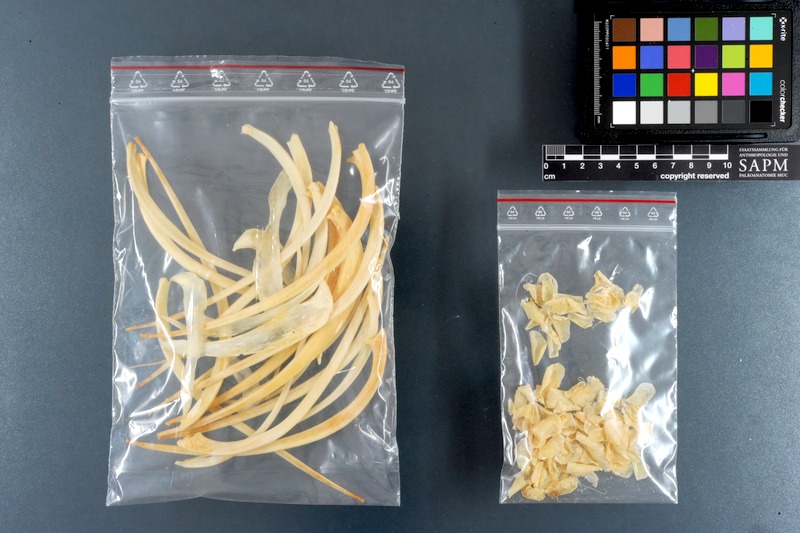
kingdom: Animalia
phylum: Chordata
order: Characiformes
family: Serrasalmidae
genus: Myleus
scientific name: Myleus pacu
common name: Pacu
